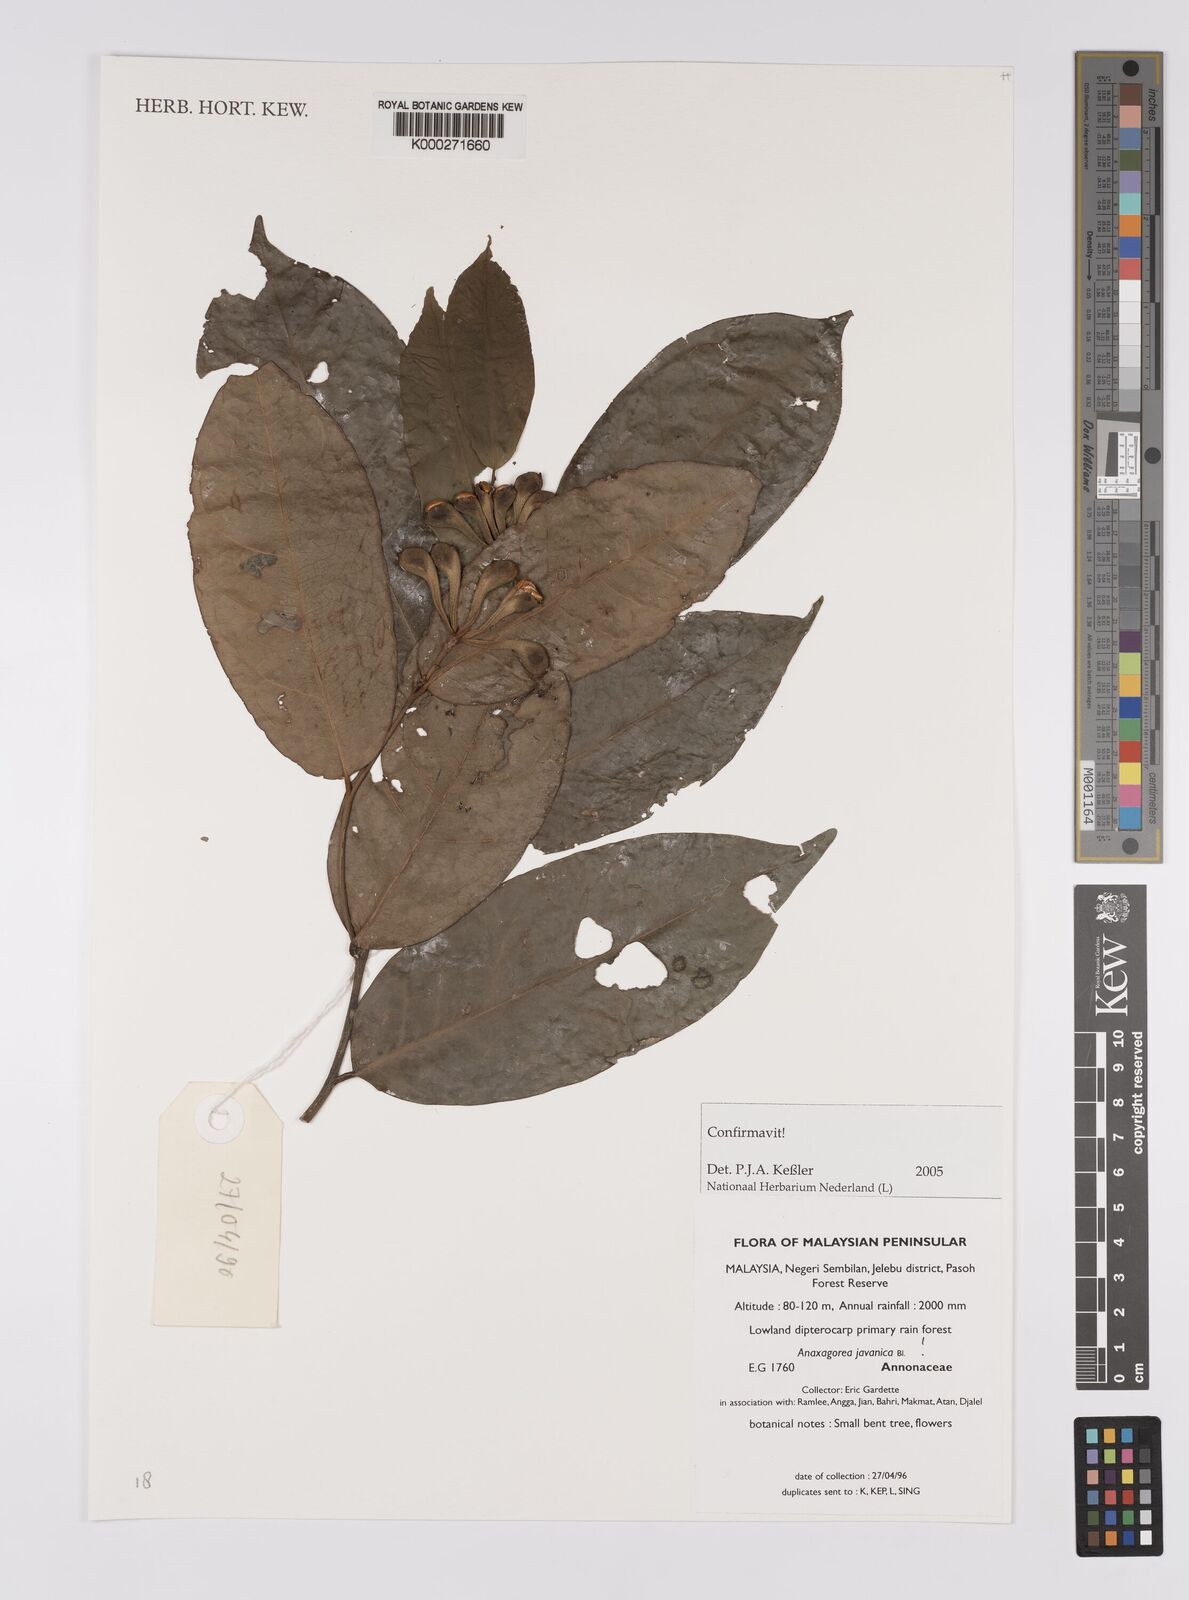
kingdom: Plantae
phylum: Tracheophyta
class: Magnoliopsida
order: Magnoliales
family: Annonaceae
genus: Anaxagorea
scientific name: Anaxagorea javanica
